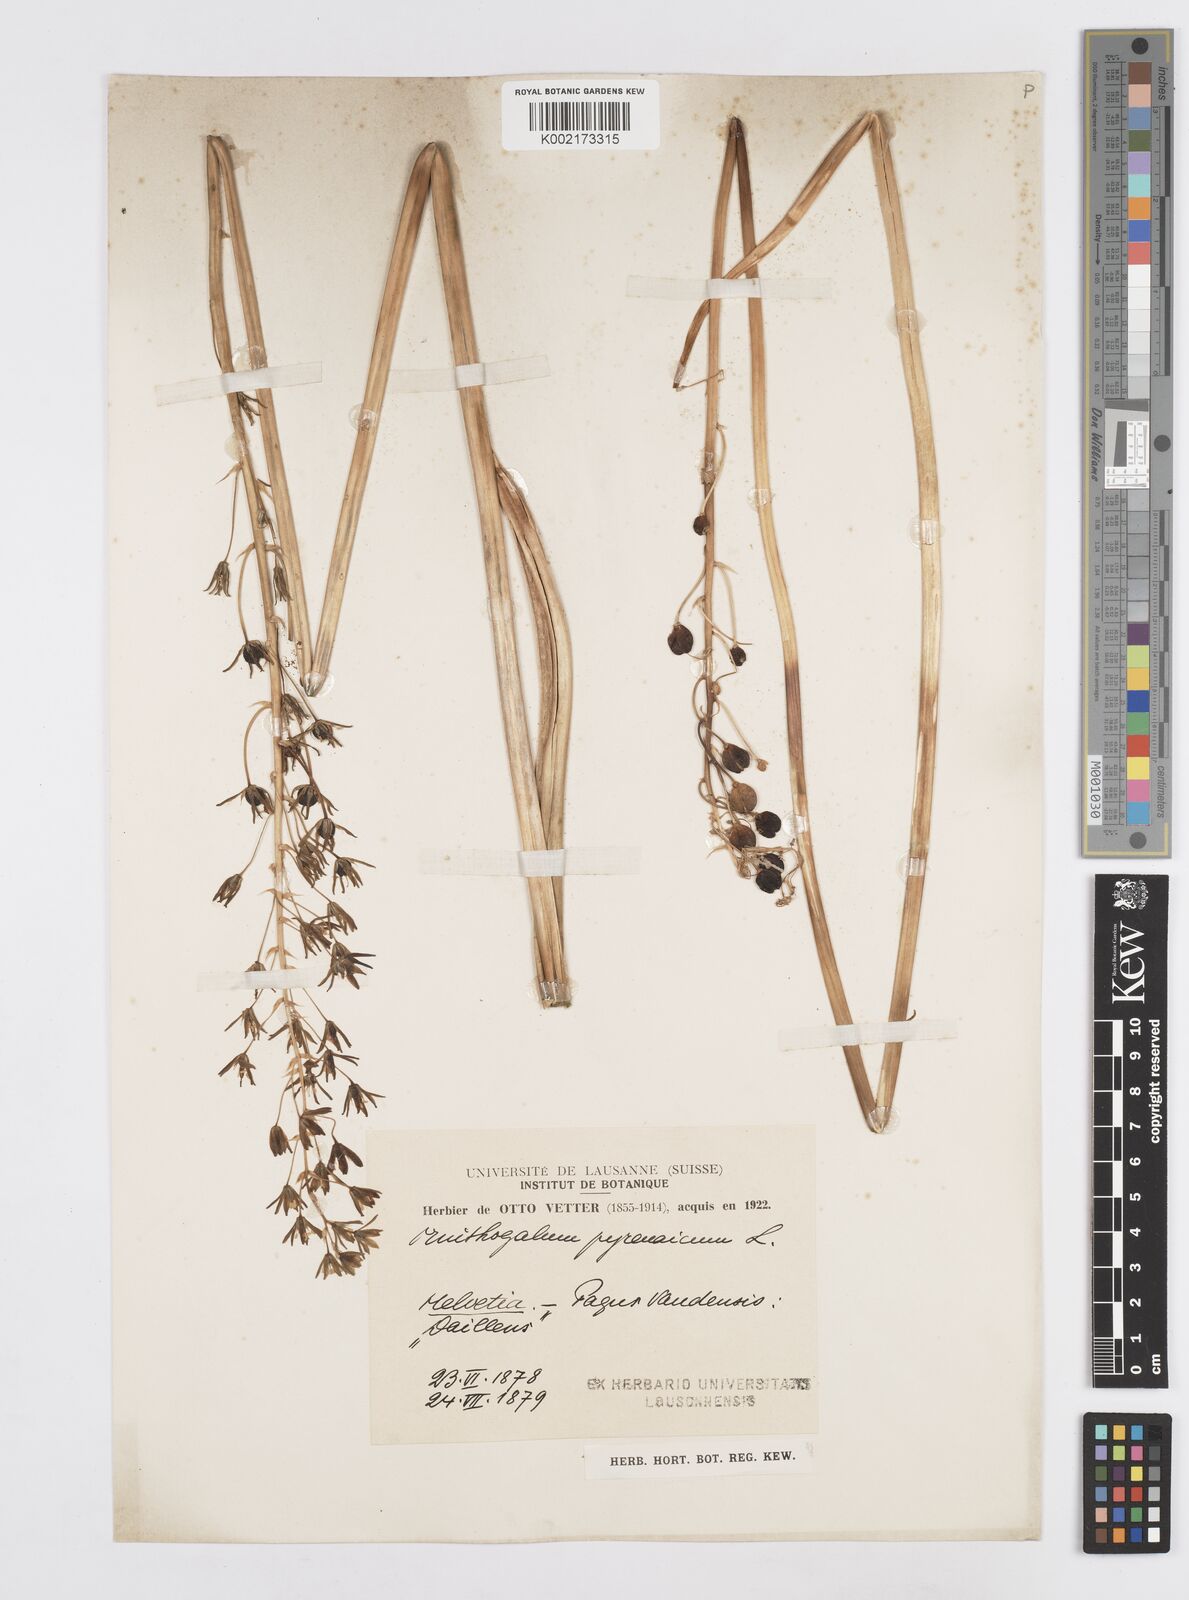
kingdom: Plantae
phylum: Tracheophyta
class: Liliopsida
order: Asparagales
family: Asparagaceae
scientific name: Asparagaceae
